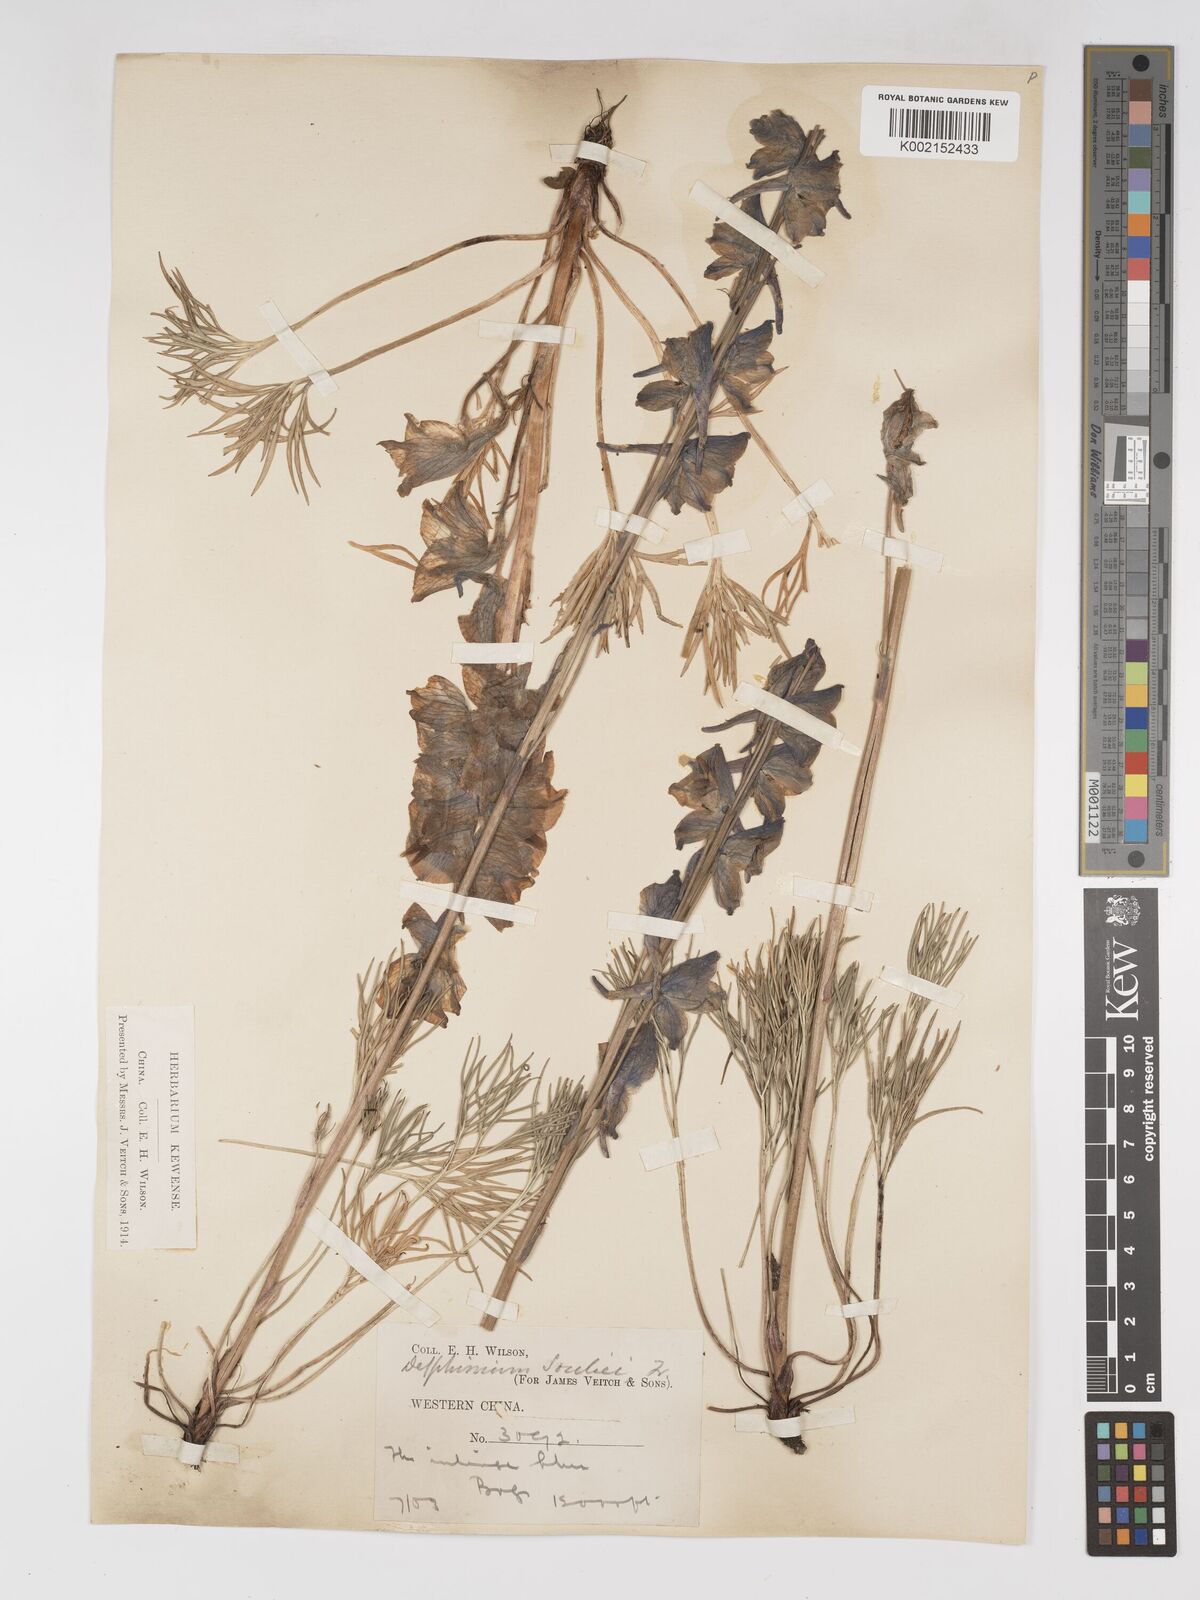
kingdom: Plantae
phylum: Tracheophyta
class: Magnoliopsida
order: Ranunculales
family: Ranunculaceae
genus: Delphinium
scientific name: Delphinium souliei
